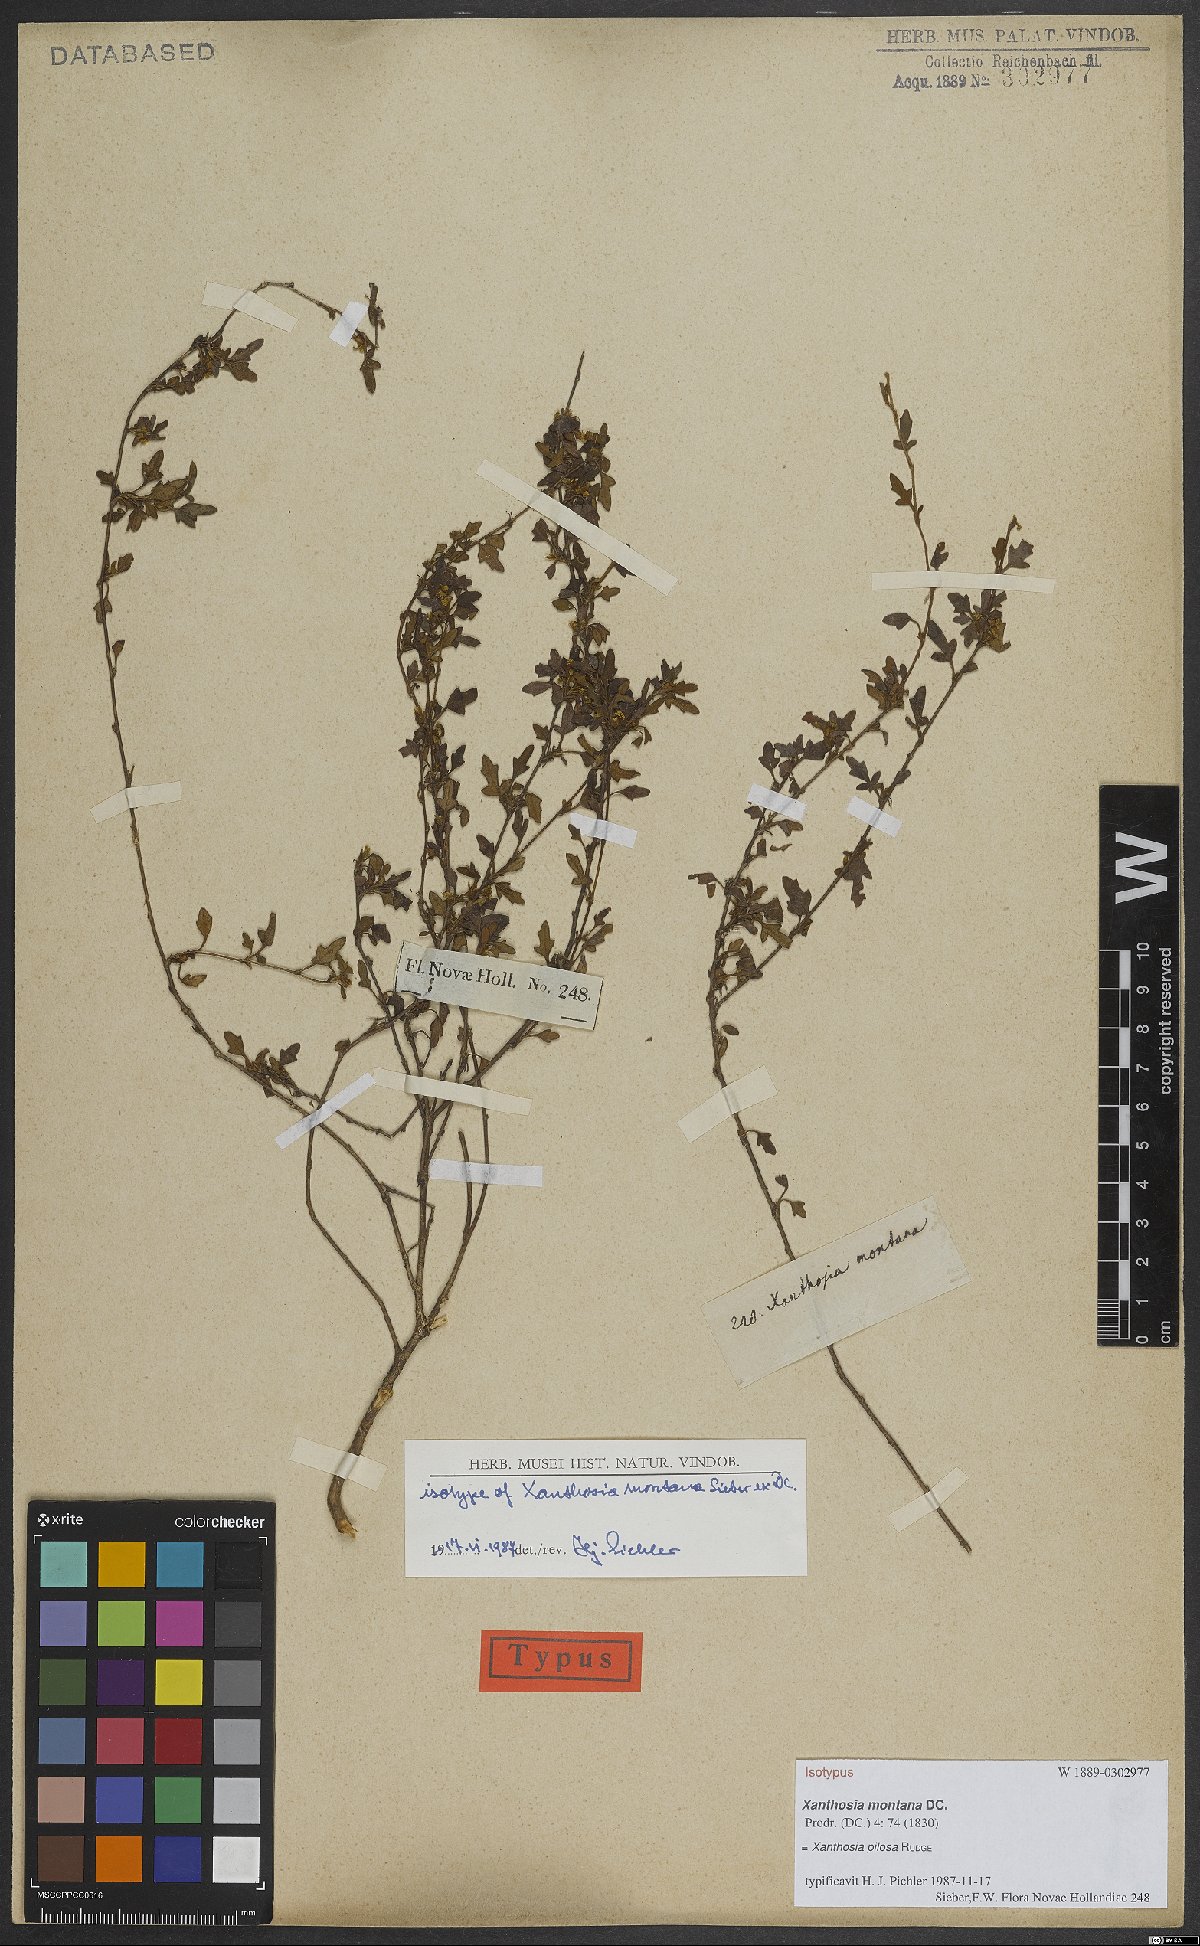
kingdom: Plantae
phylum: Tracheophyta
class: Magnoliopsida
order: Apiales
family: Apiaceae
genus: Xanthosia
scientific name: Xanthosia pilosa
